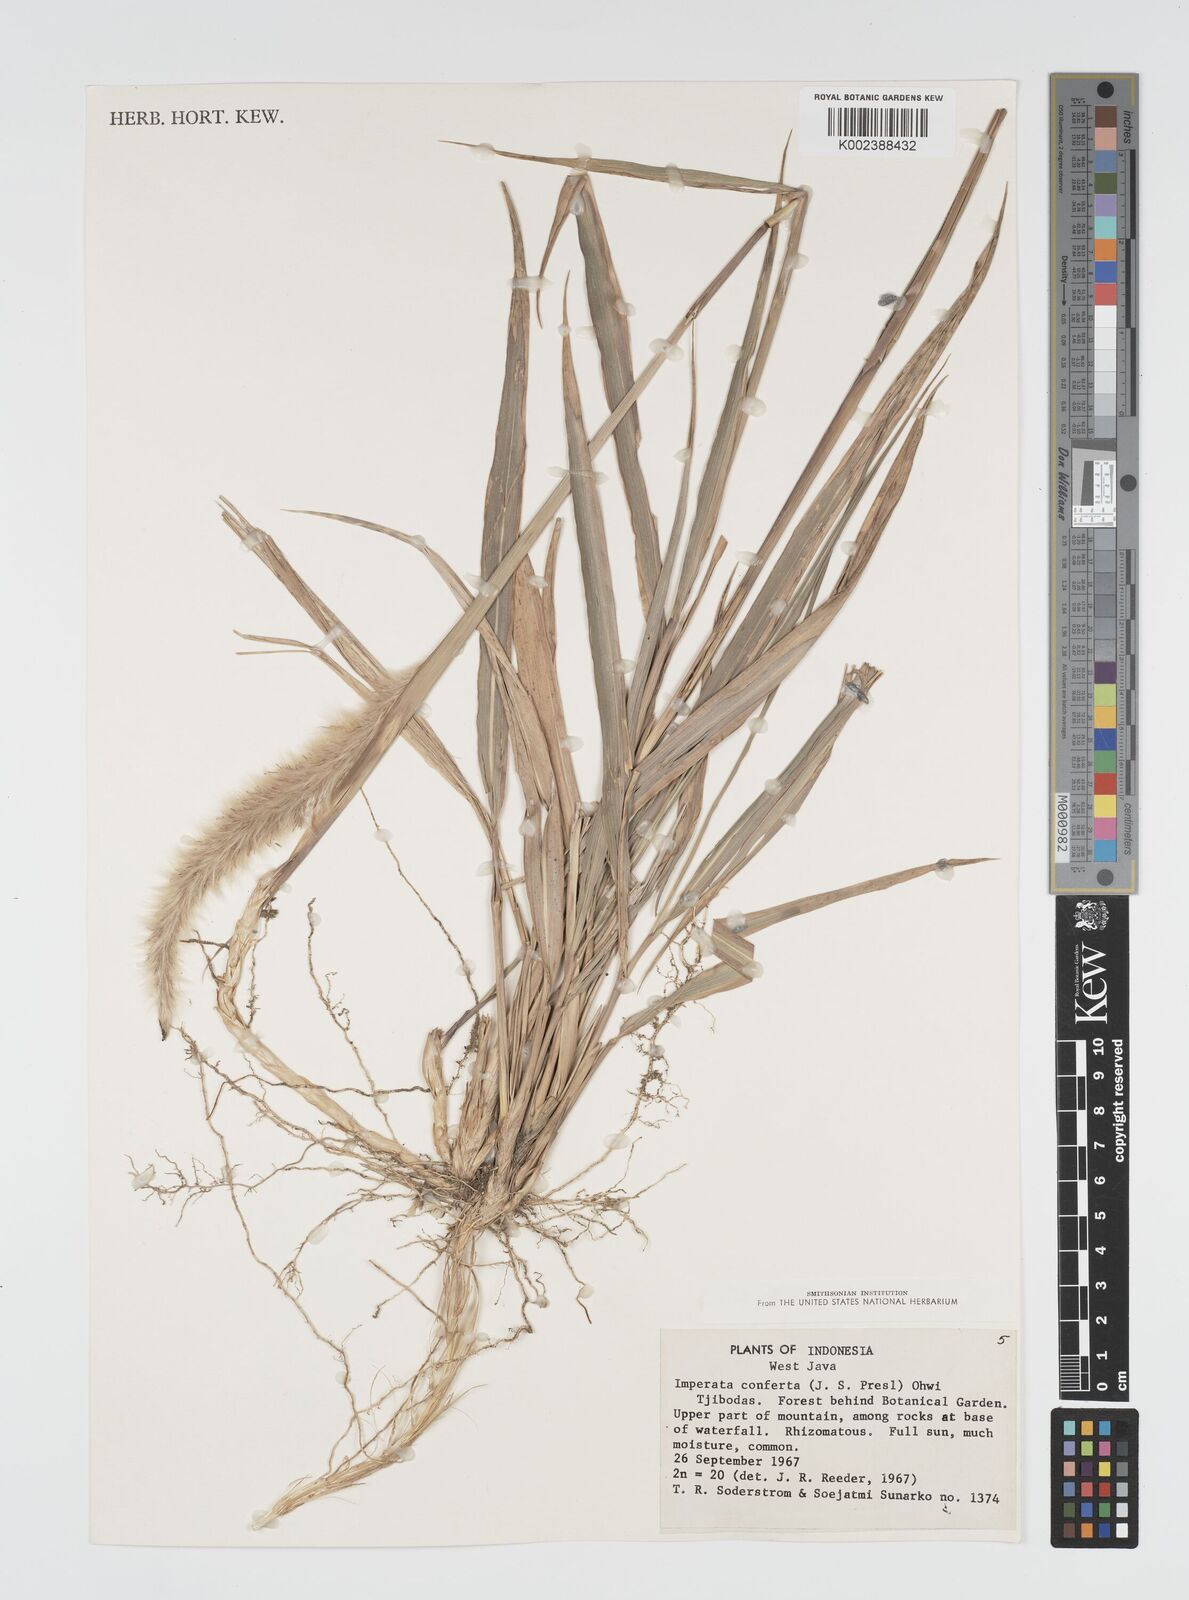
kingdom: Plantae
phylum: Tracheophyta
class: Liliopsida
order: Poales
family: Poaceae
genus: Imperata
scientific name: Imperata conferta
